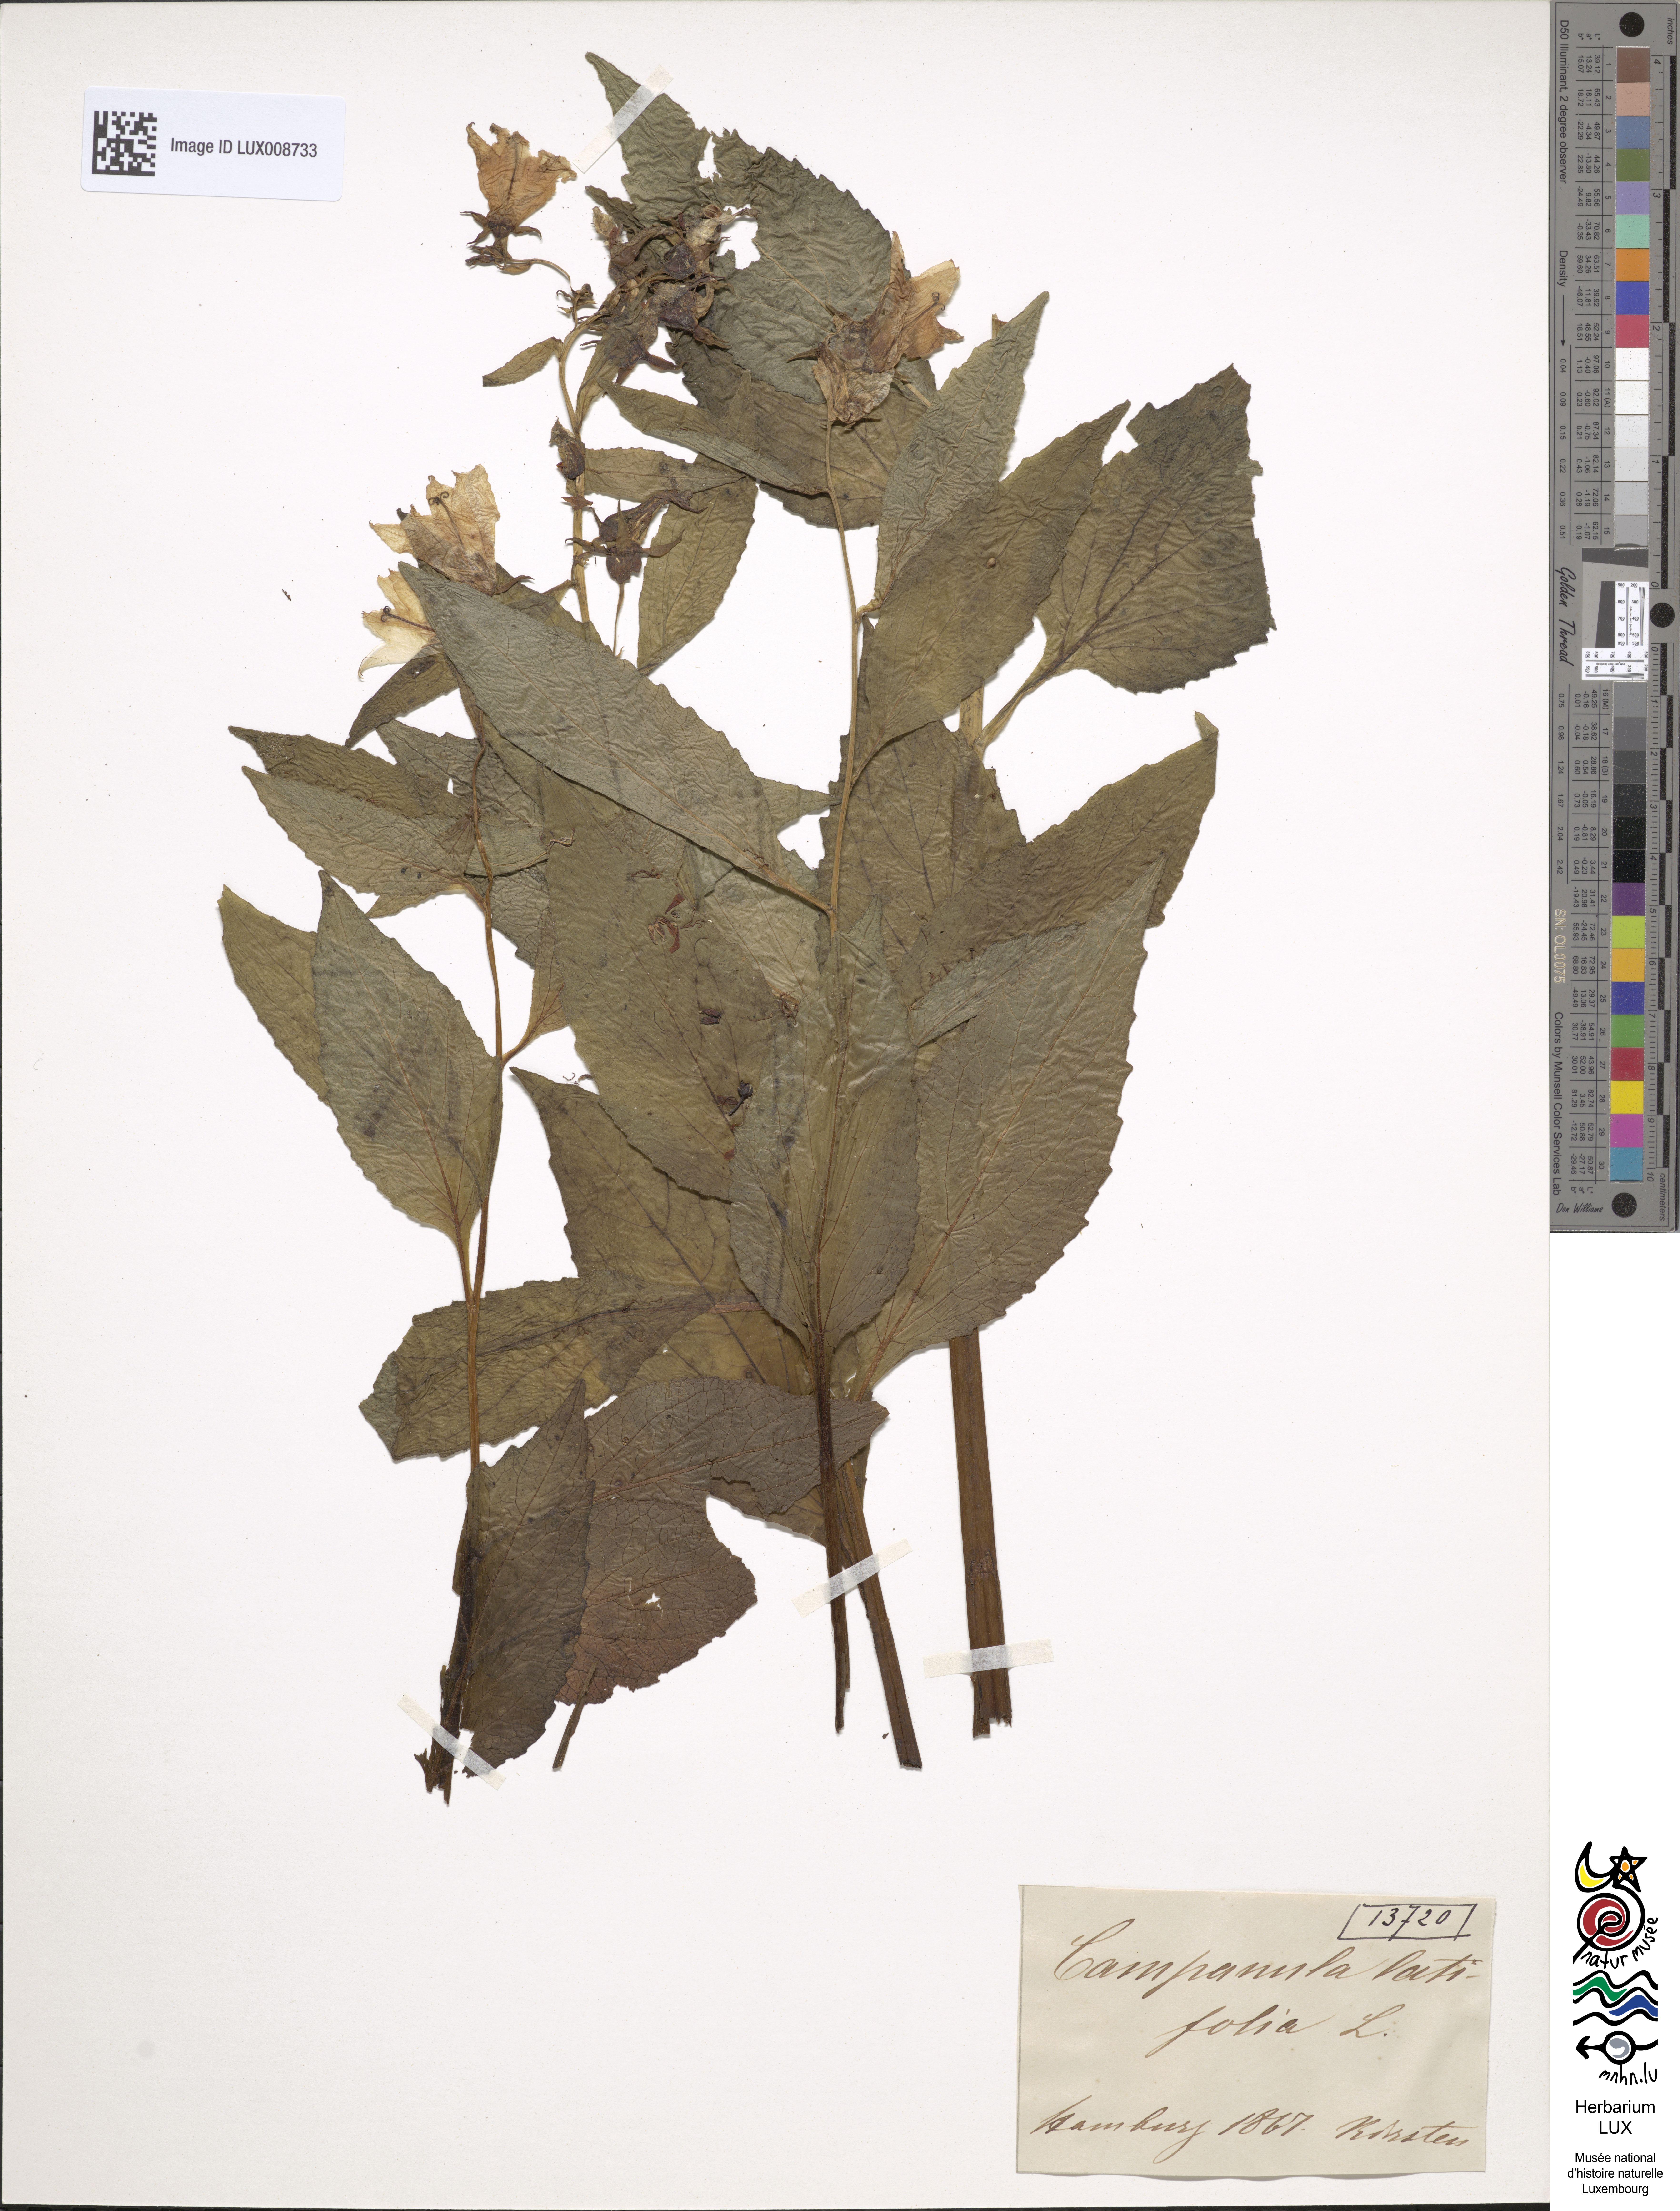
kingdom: Plantae
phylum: Tracheophyta
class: Magnoliopsida
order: Asterales
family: Campanulaceae
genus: Campanula
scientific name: Campanula latifolia
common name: Giant bellflower
